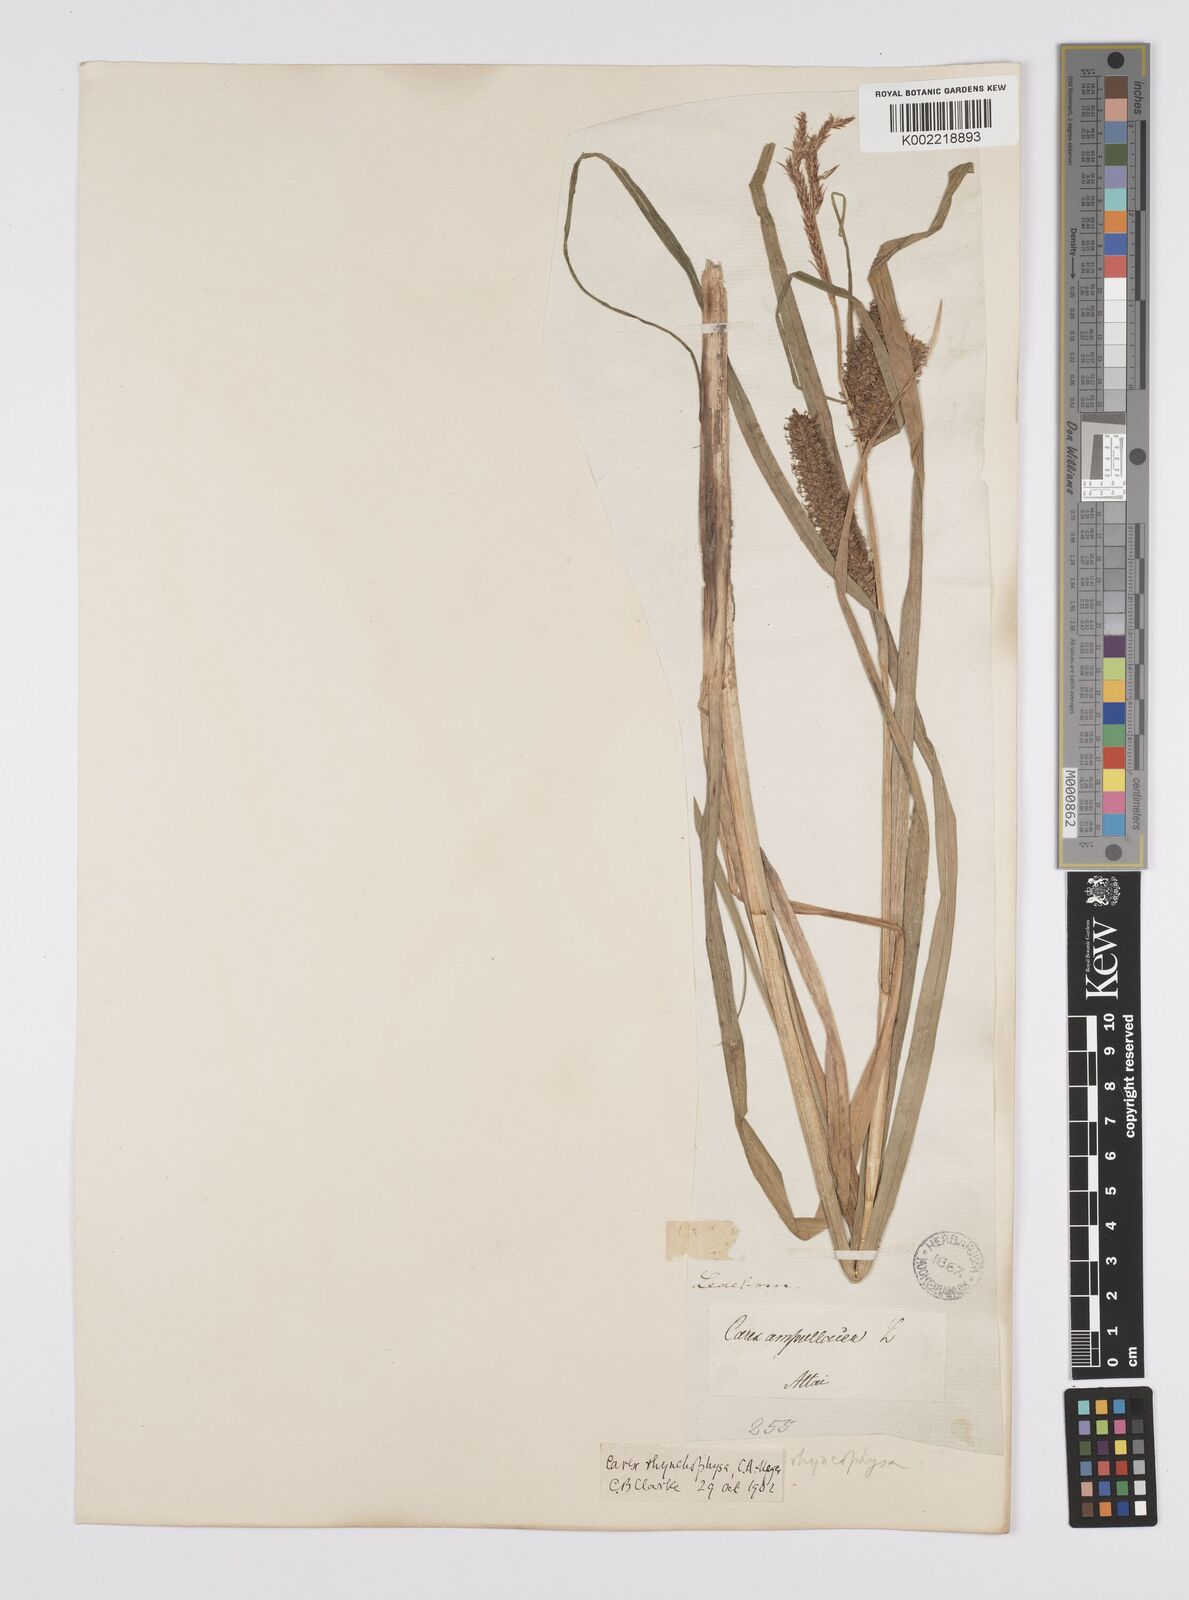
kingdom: Plantae
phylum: Tracheophyta
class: Liliopsida
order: Poales
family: Cyperaceae
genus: Carex
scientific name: Carex utriculata
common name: Beaked sedge
